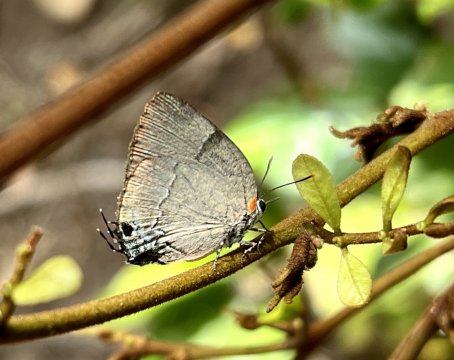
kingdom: Animalia
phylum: Arthropoda
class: Insecta
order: Lepidoptera
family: Lycaenidae
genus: Panthiades
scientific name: Panthiades bitias
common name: Bitias Hairstreak
